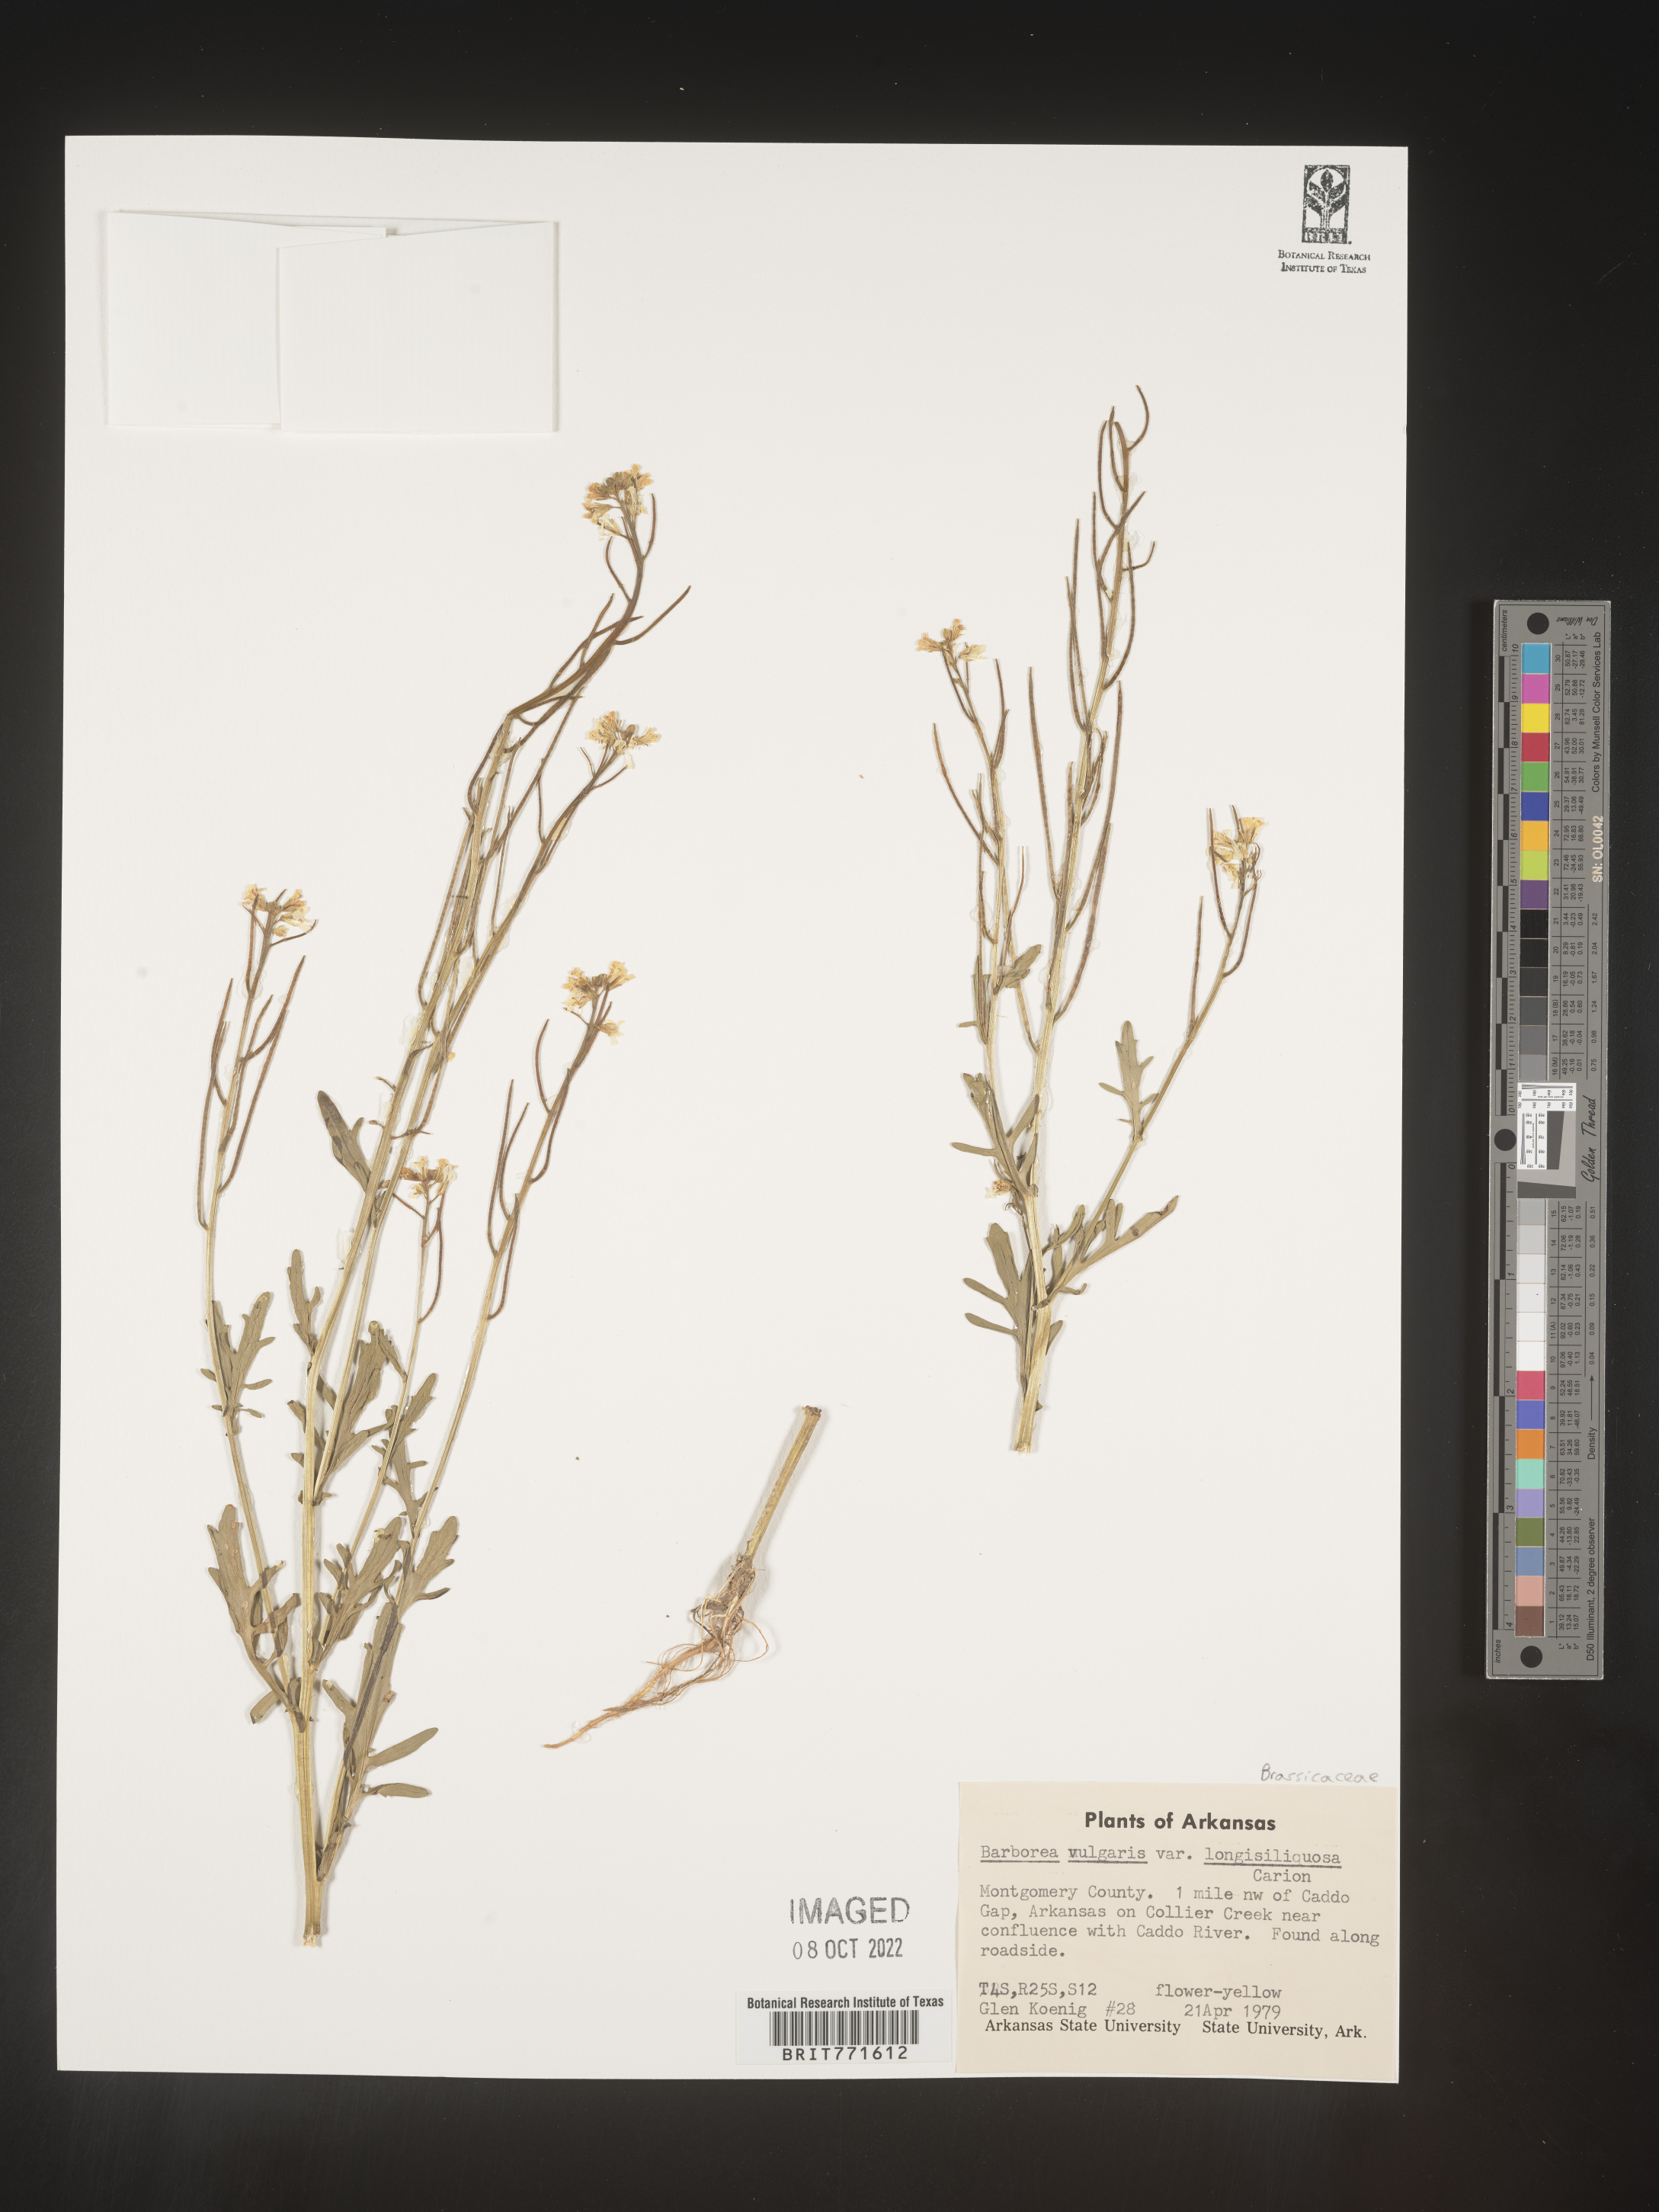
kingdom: Plantae
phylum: Tracheophyta
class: Magnoliopsida
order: Brassicales
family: Brassicaceae
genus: Barbarea
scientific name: Barbarea vulgaris
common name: Cressy-greens
